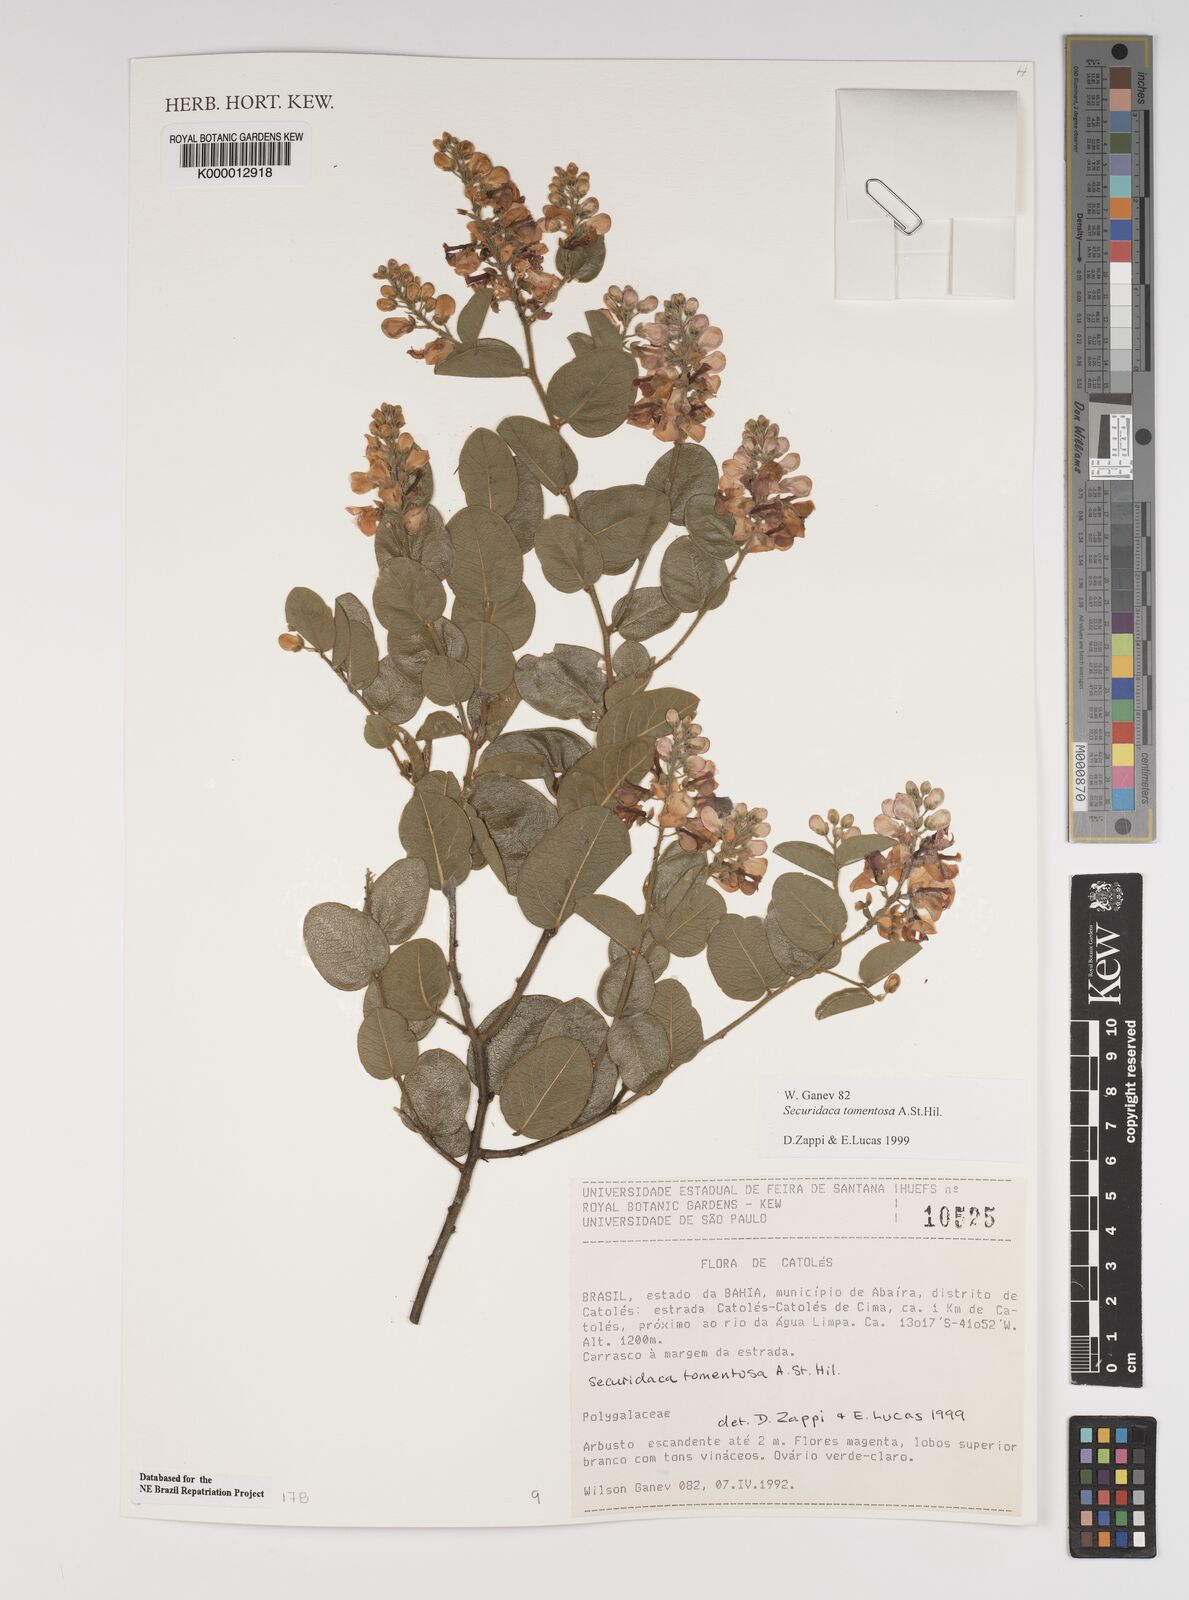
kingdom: Plantae
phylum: Tracheophyta
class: Magnoliopsida
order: Fabales
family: Polygalaceae
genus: Securidaca
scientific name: Securidaca tomentosa
